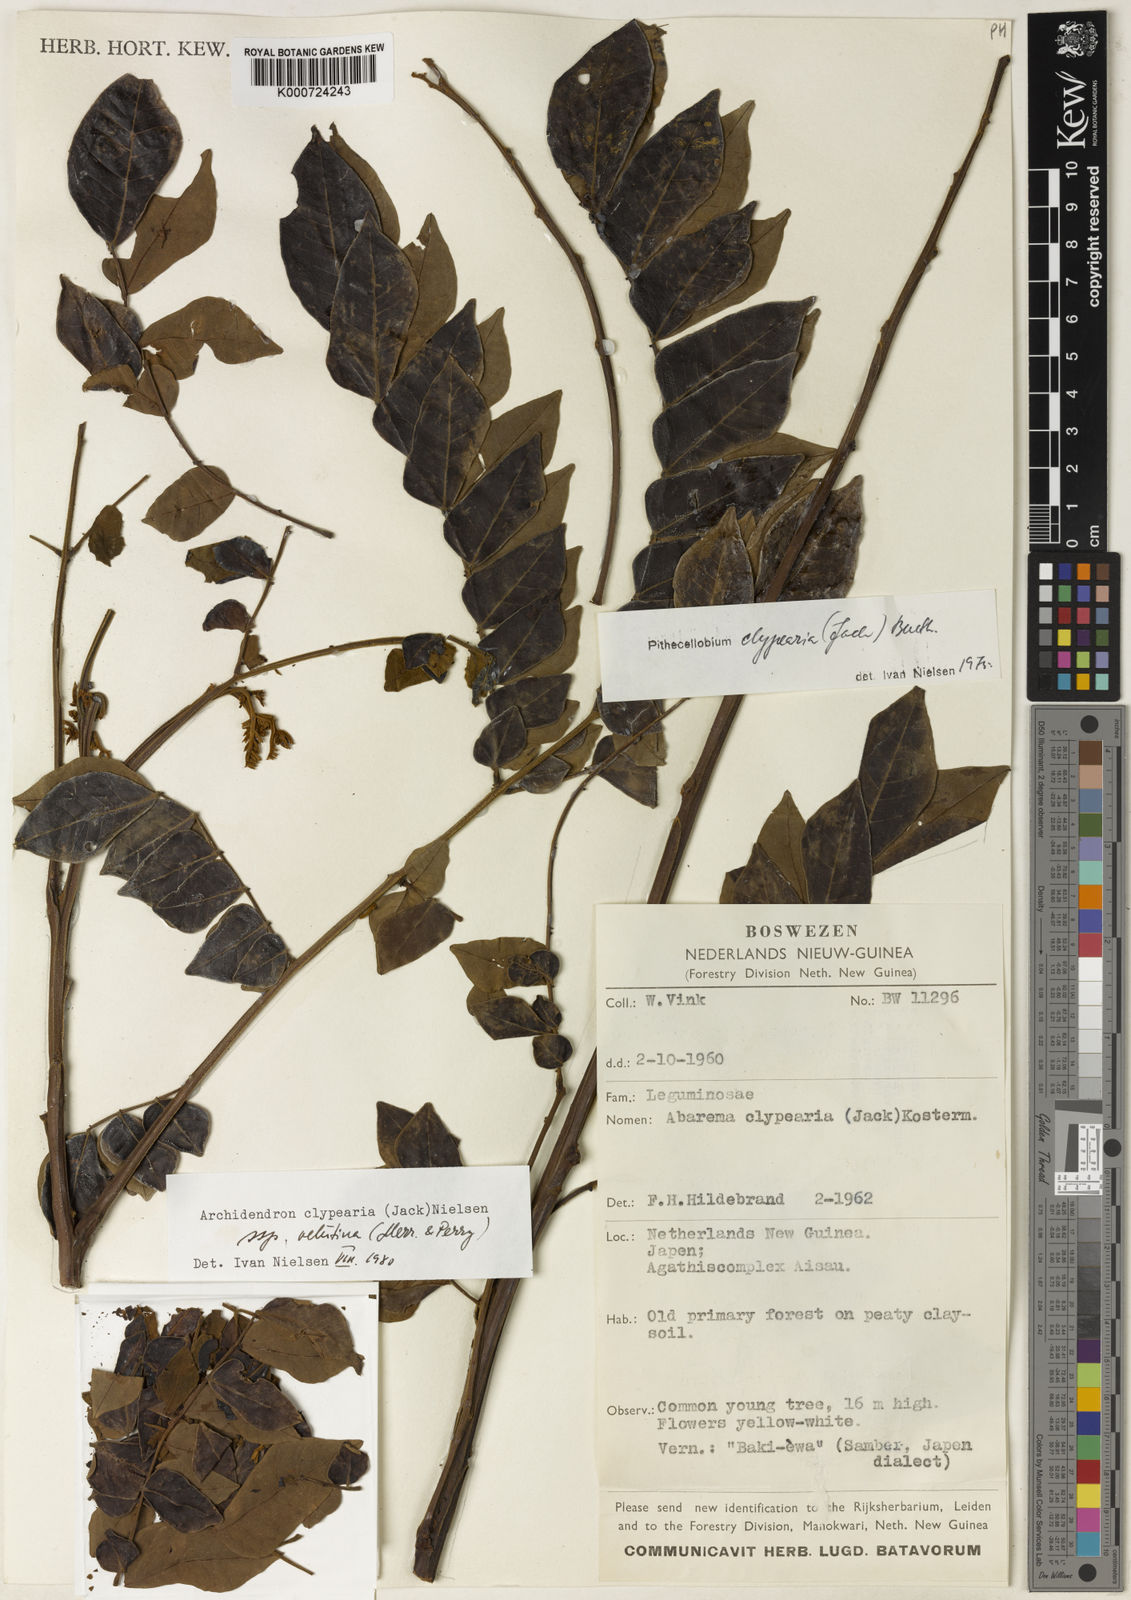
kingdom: Plantae
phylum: Tracheophyta
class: Magnoliopsida
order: Fabales
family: Fabaceae
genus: Archidendron
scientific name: Archidendron clypearia
